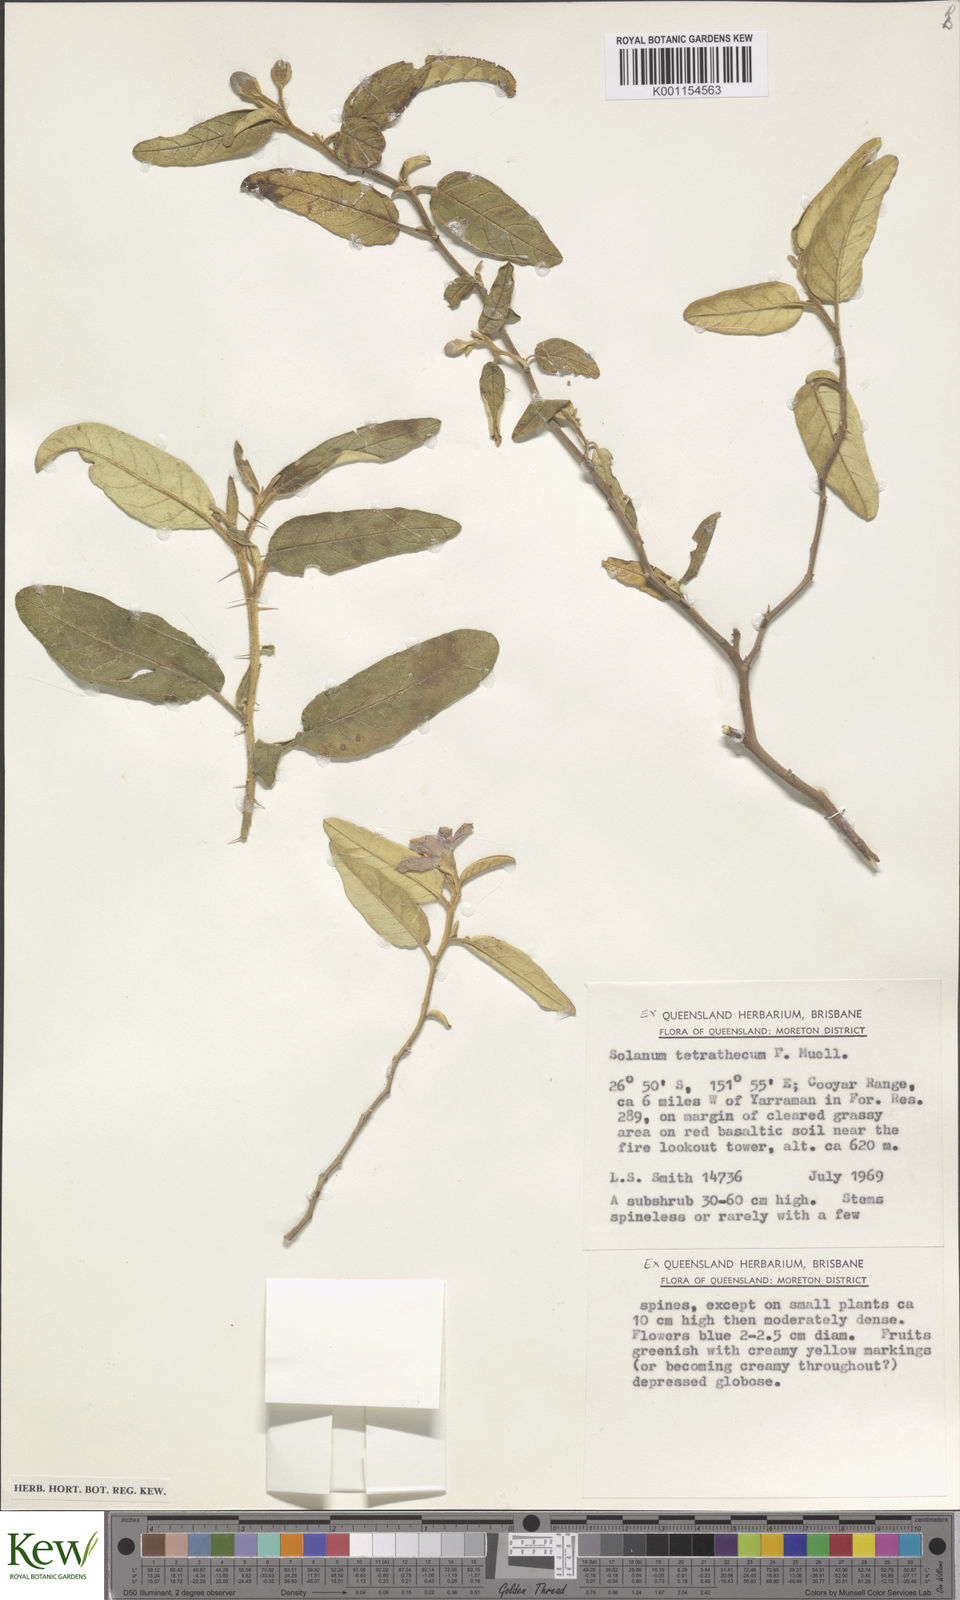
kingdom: Plantae
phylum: Tracheophyta
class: Magnoliopsida
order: Solanales
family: Solanaceae
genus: Solanum
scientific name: Solanum tetrathecum
